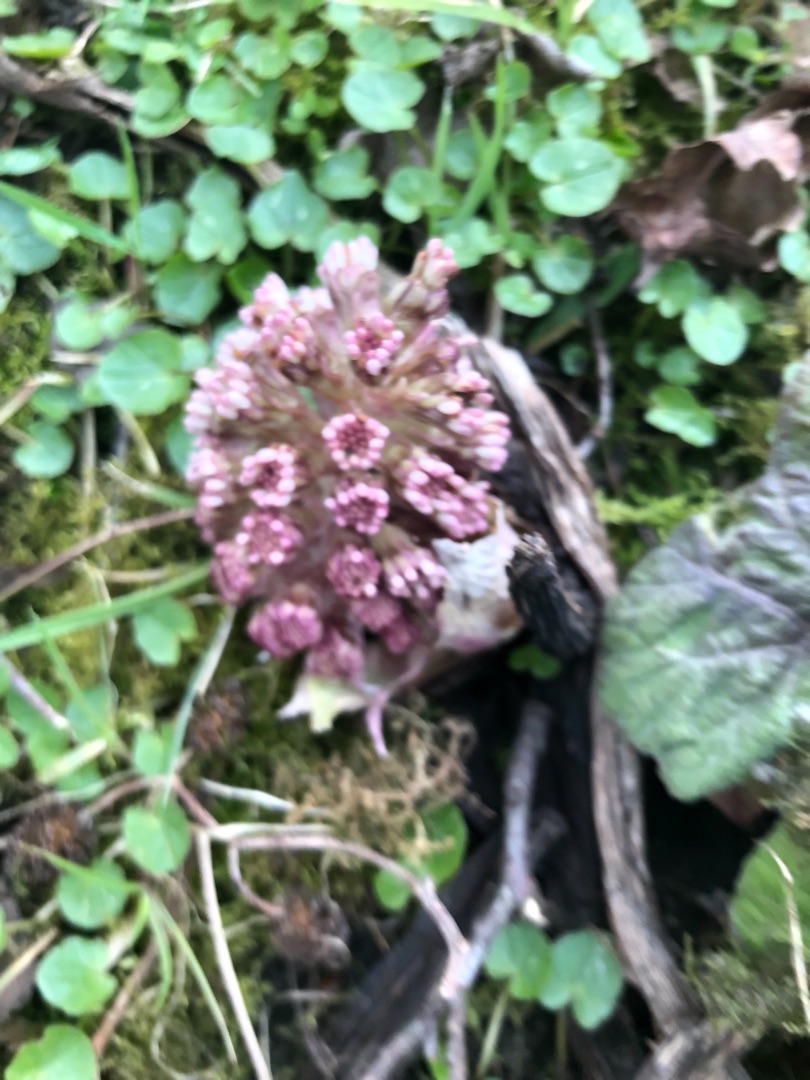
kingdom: Plantae
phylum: Tracheophyta
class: Magnoliopsida
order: Asterales
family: Asteraceae
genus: Petasites
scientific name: Petasites hybridus
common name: Rød hestehov
